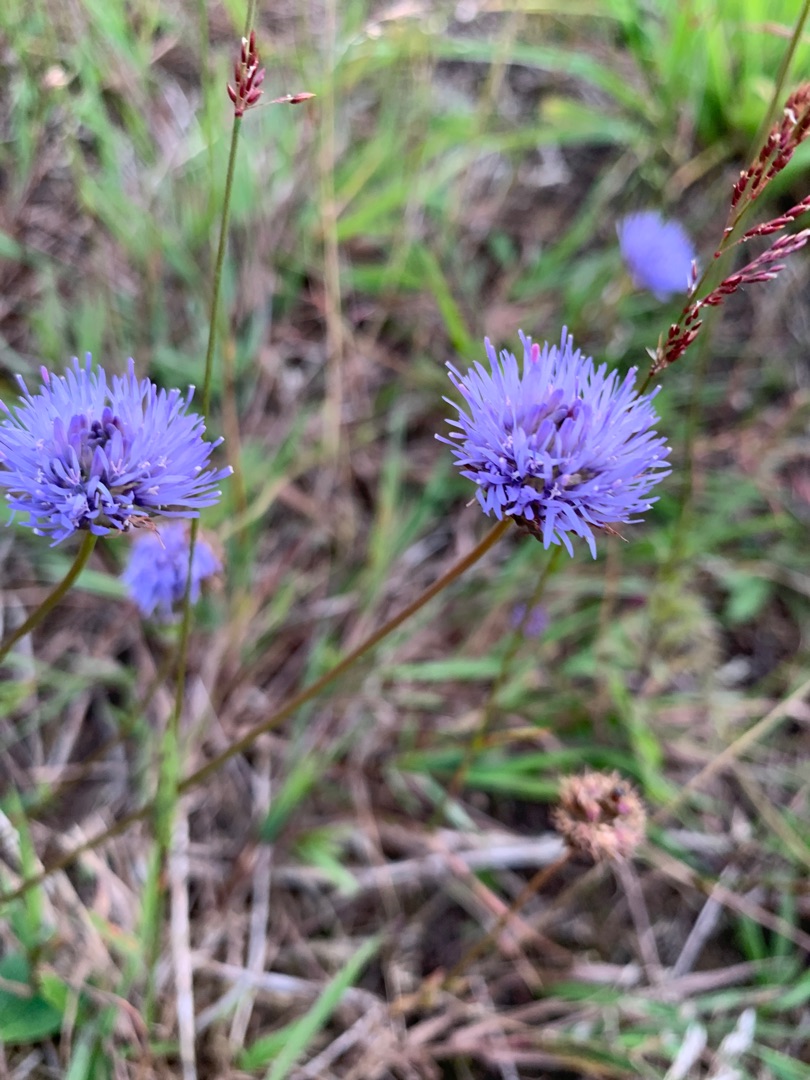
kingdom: Plantae
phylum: Tracheophyta
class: Magnoliopsida
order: Asterales
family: Campanulaceae
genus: Jasione
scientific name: Jasione montana
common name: Blåmunke
